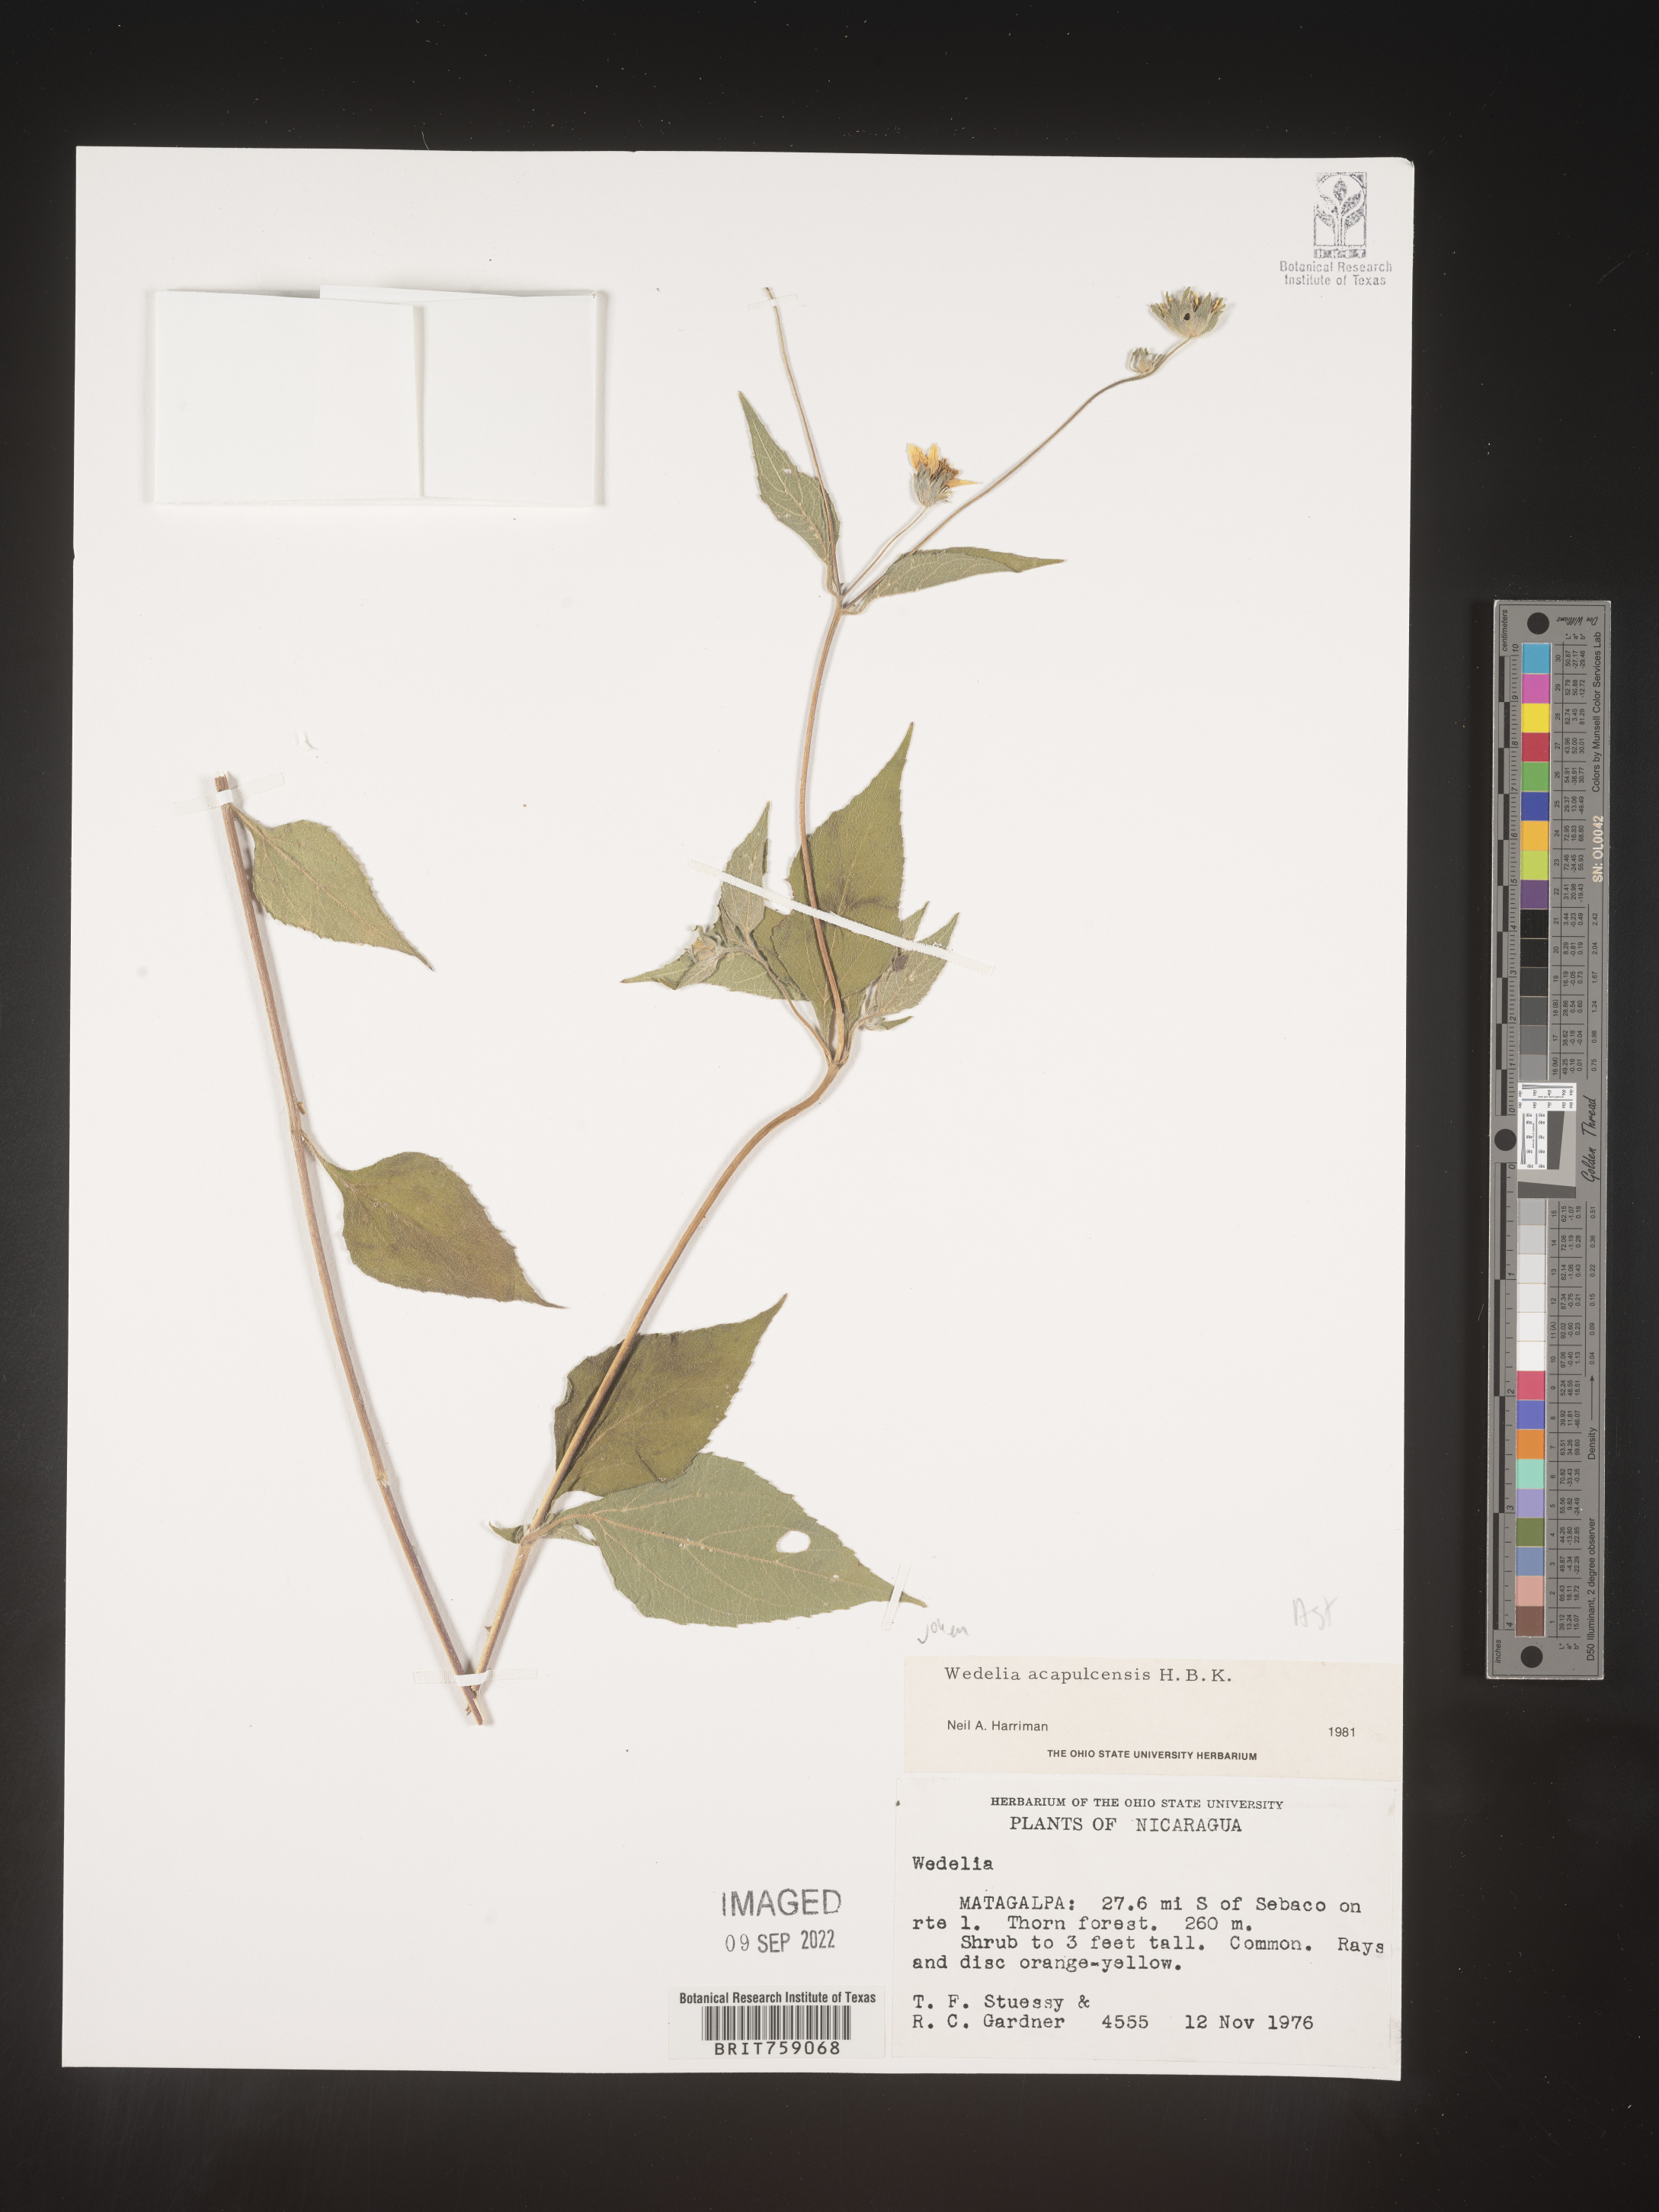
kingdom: Plantae
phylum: Tracheophyta
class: Magnoliopsida
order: Asterales
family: Asteraceae
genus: Wedelia
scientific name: Wedelia
